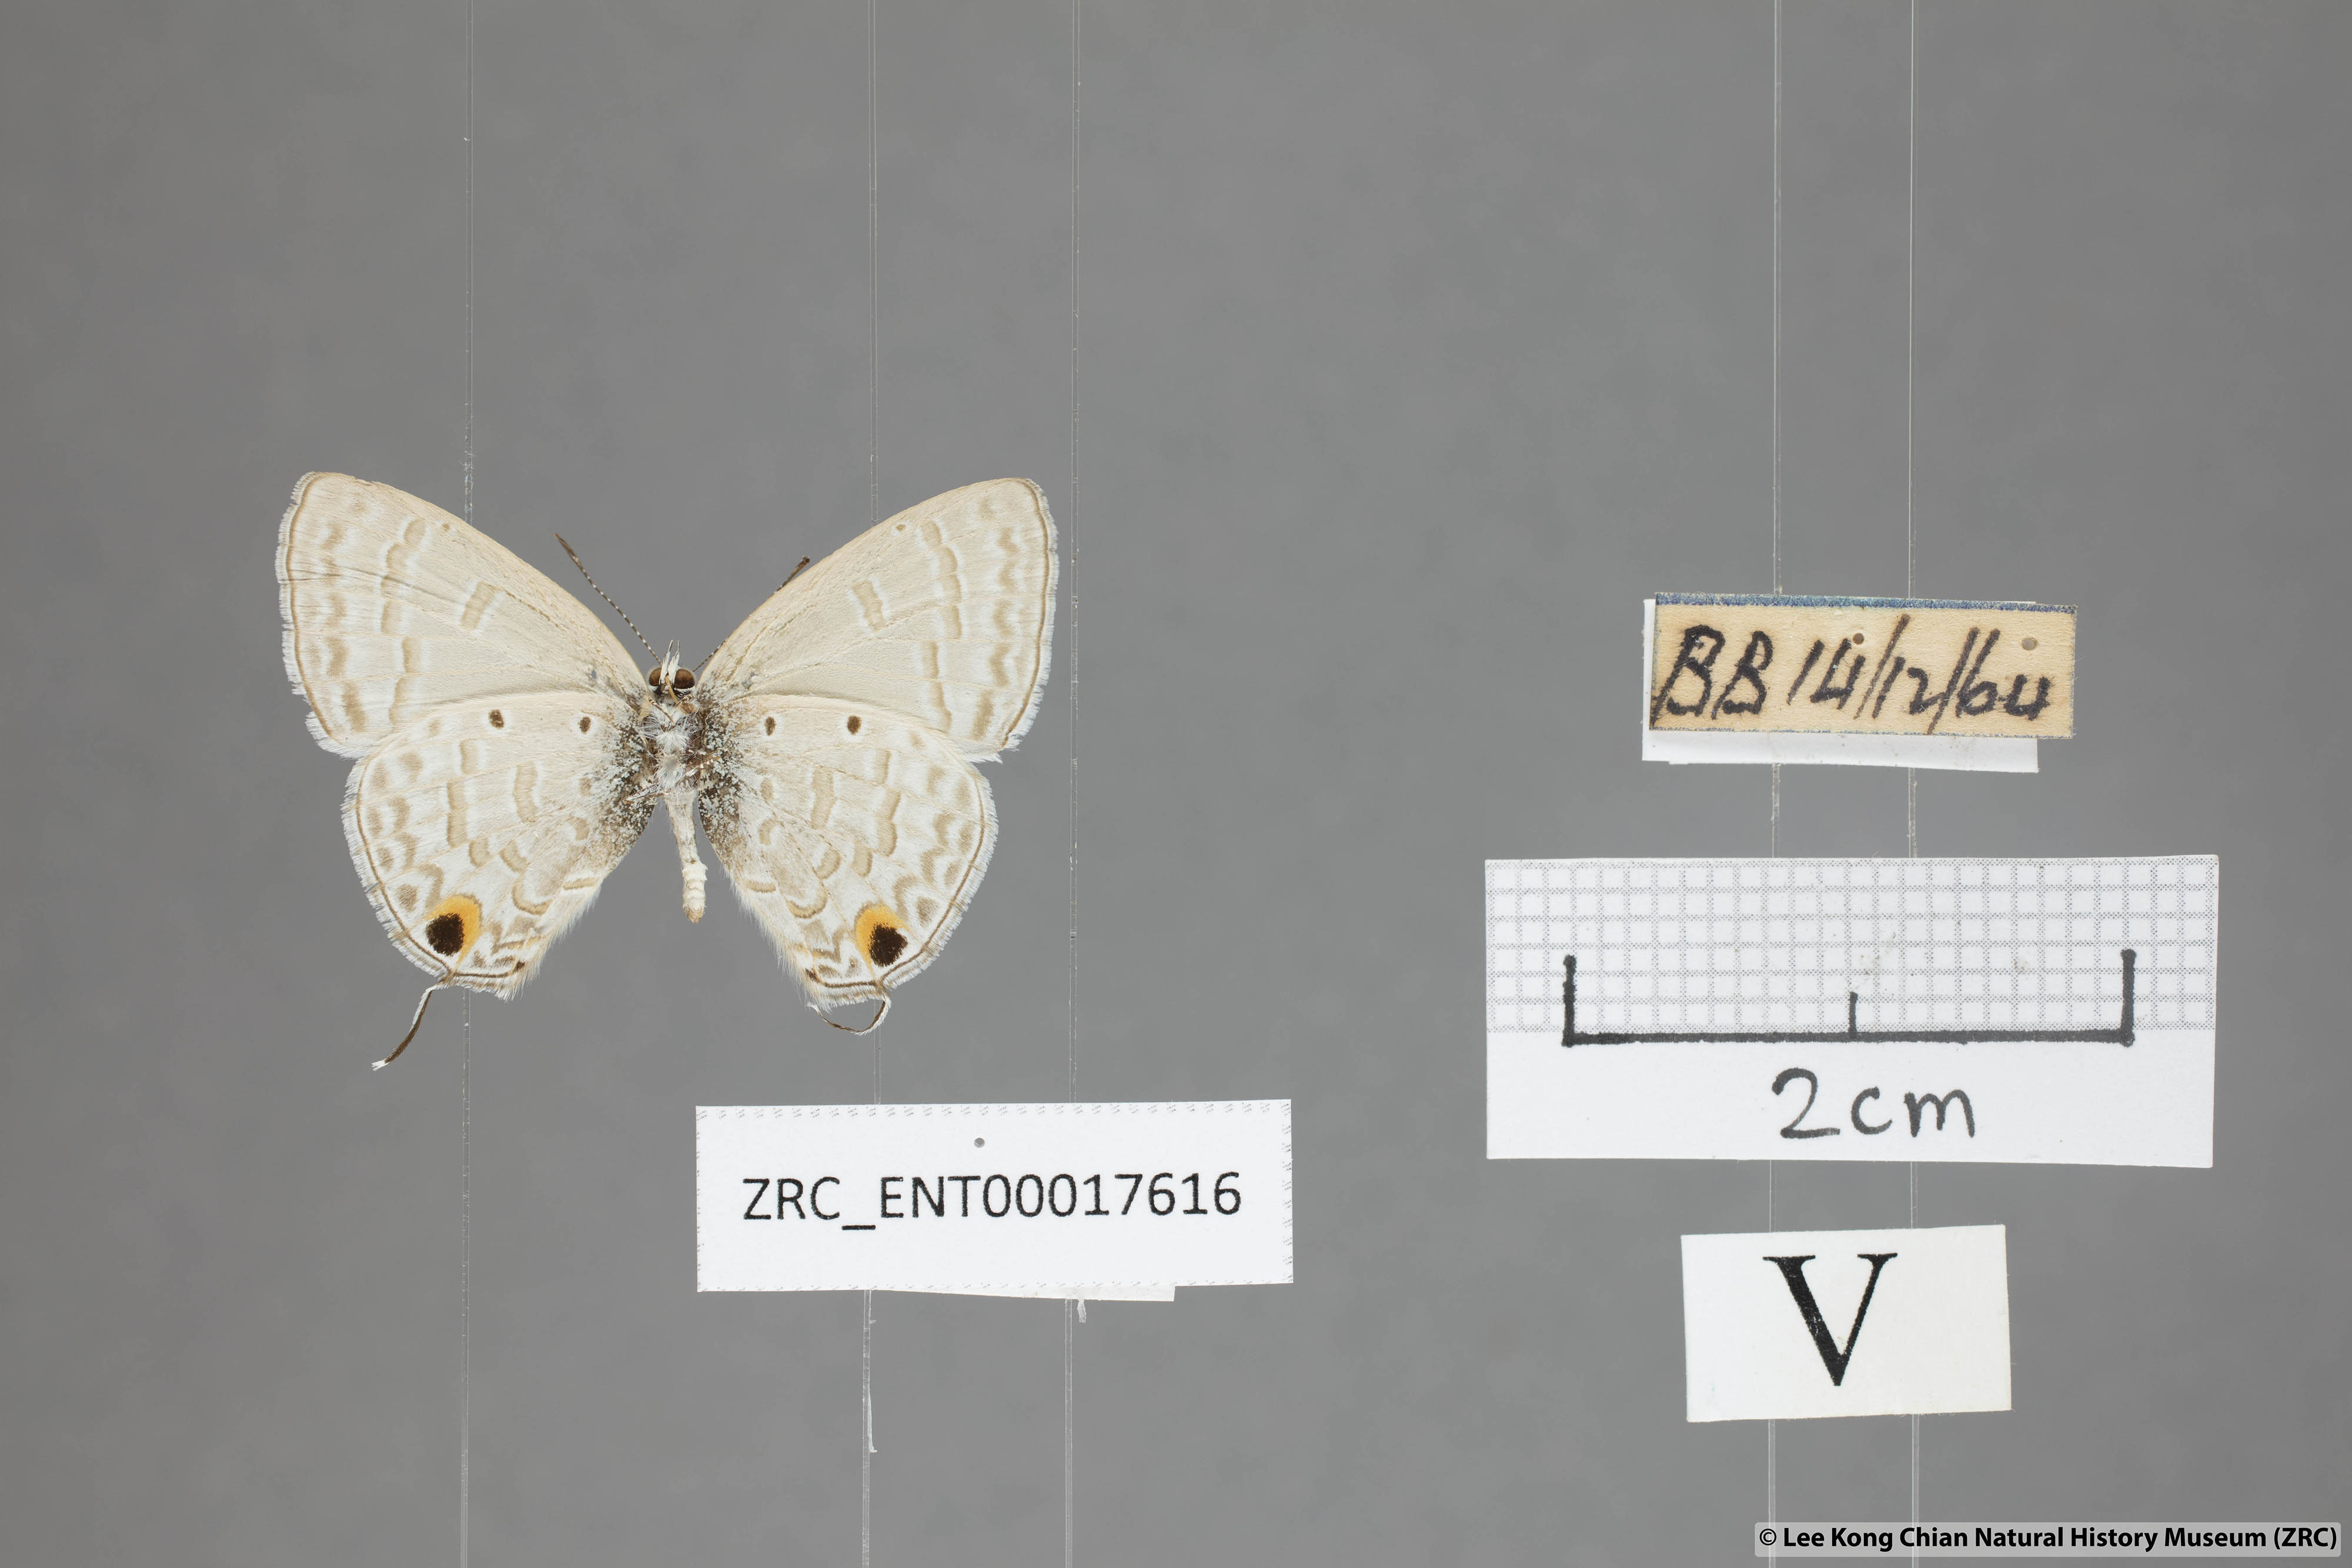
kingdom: Animalia
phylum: Arthropoda
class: Insecta
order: Lepidoptera
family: Lycaenidae
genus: Catochrysops
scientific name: Catochrysops panormus
